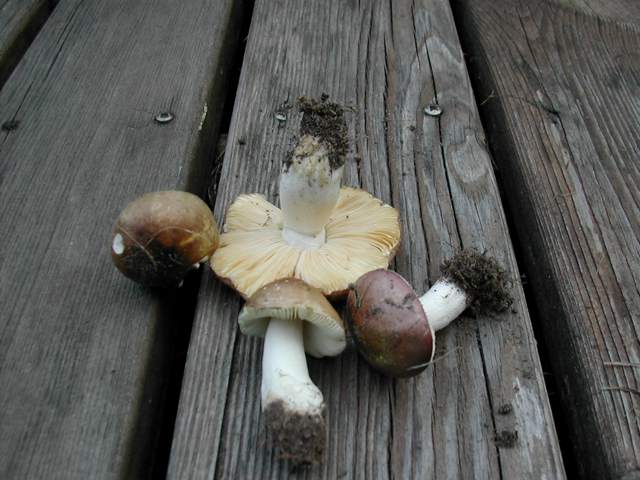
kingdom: Fungi
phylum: Basidiomycota
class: Agaricomycetes
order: Russulales
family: Russulaceae
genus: Russula
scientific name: Russula cessans
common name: fyrre-skørhat
